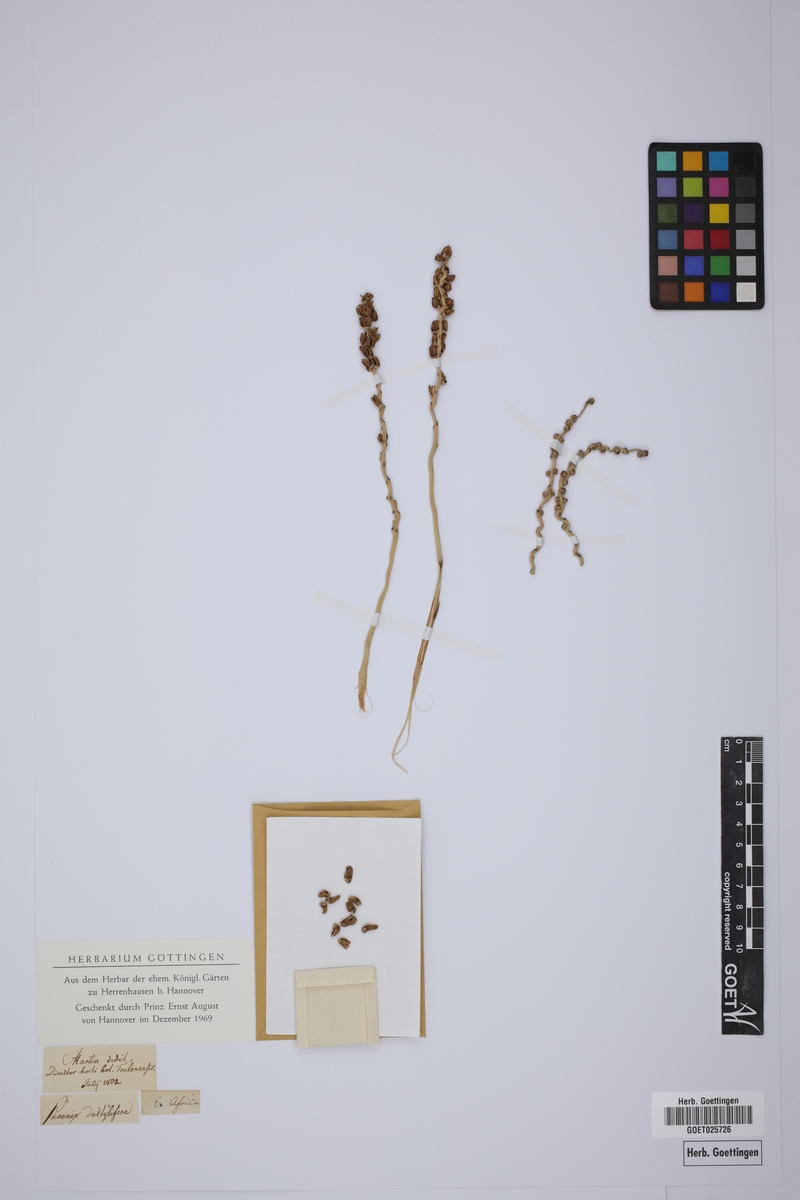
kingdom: Plantae
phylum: Tracheophyta
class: Liliopsida
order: Arecales
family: Arecaceae
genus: Phoenix
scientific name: Phoenix dactylifera
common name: Date palm
